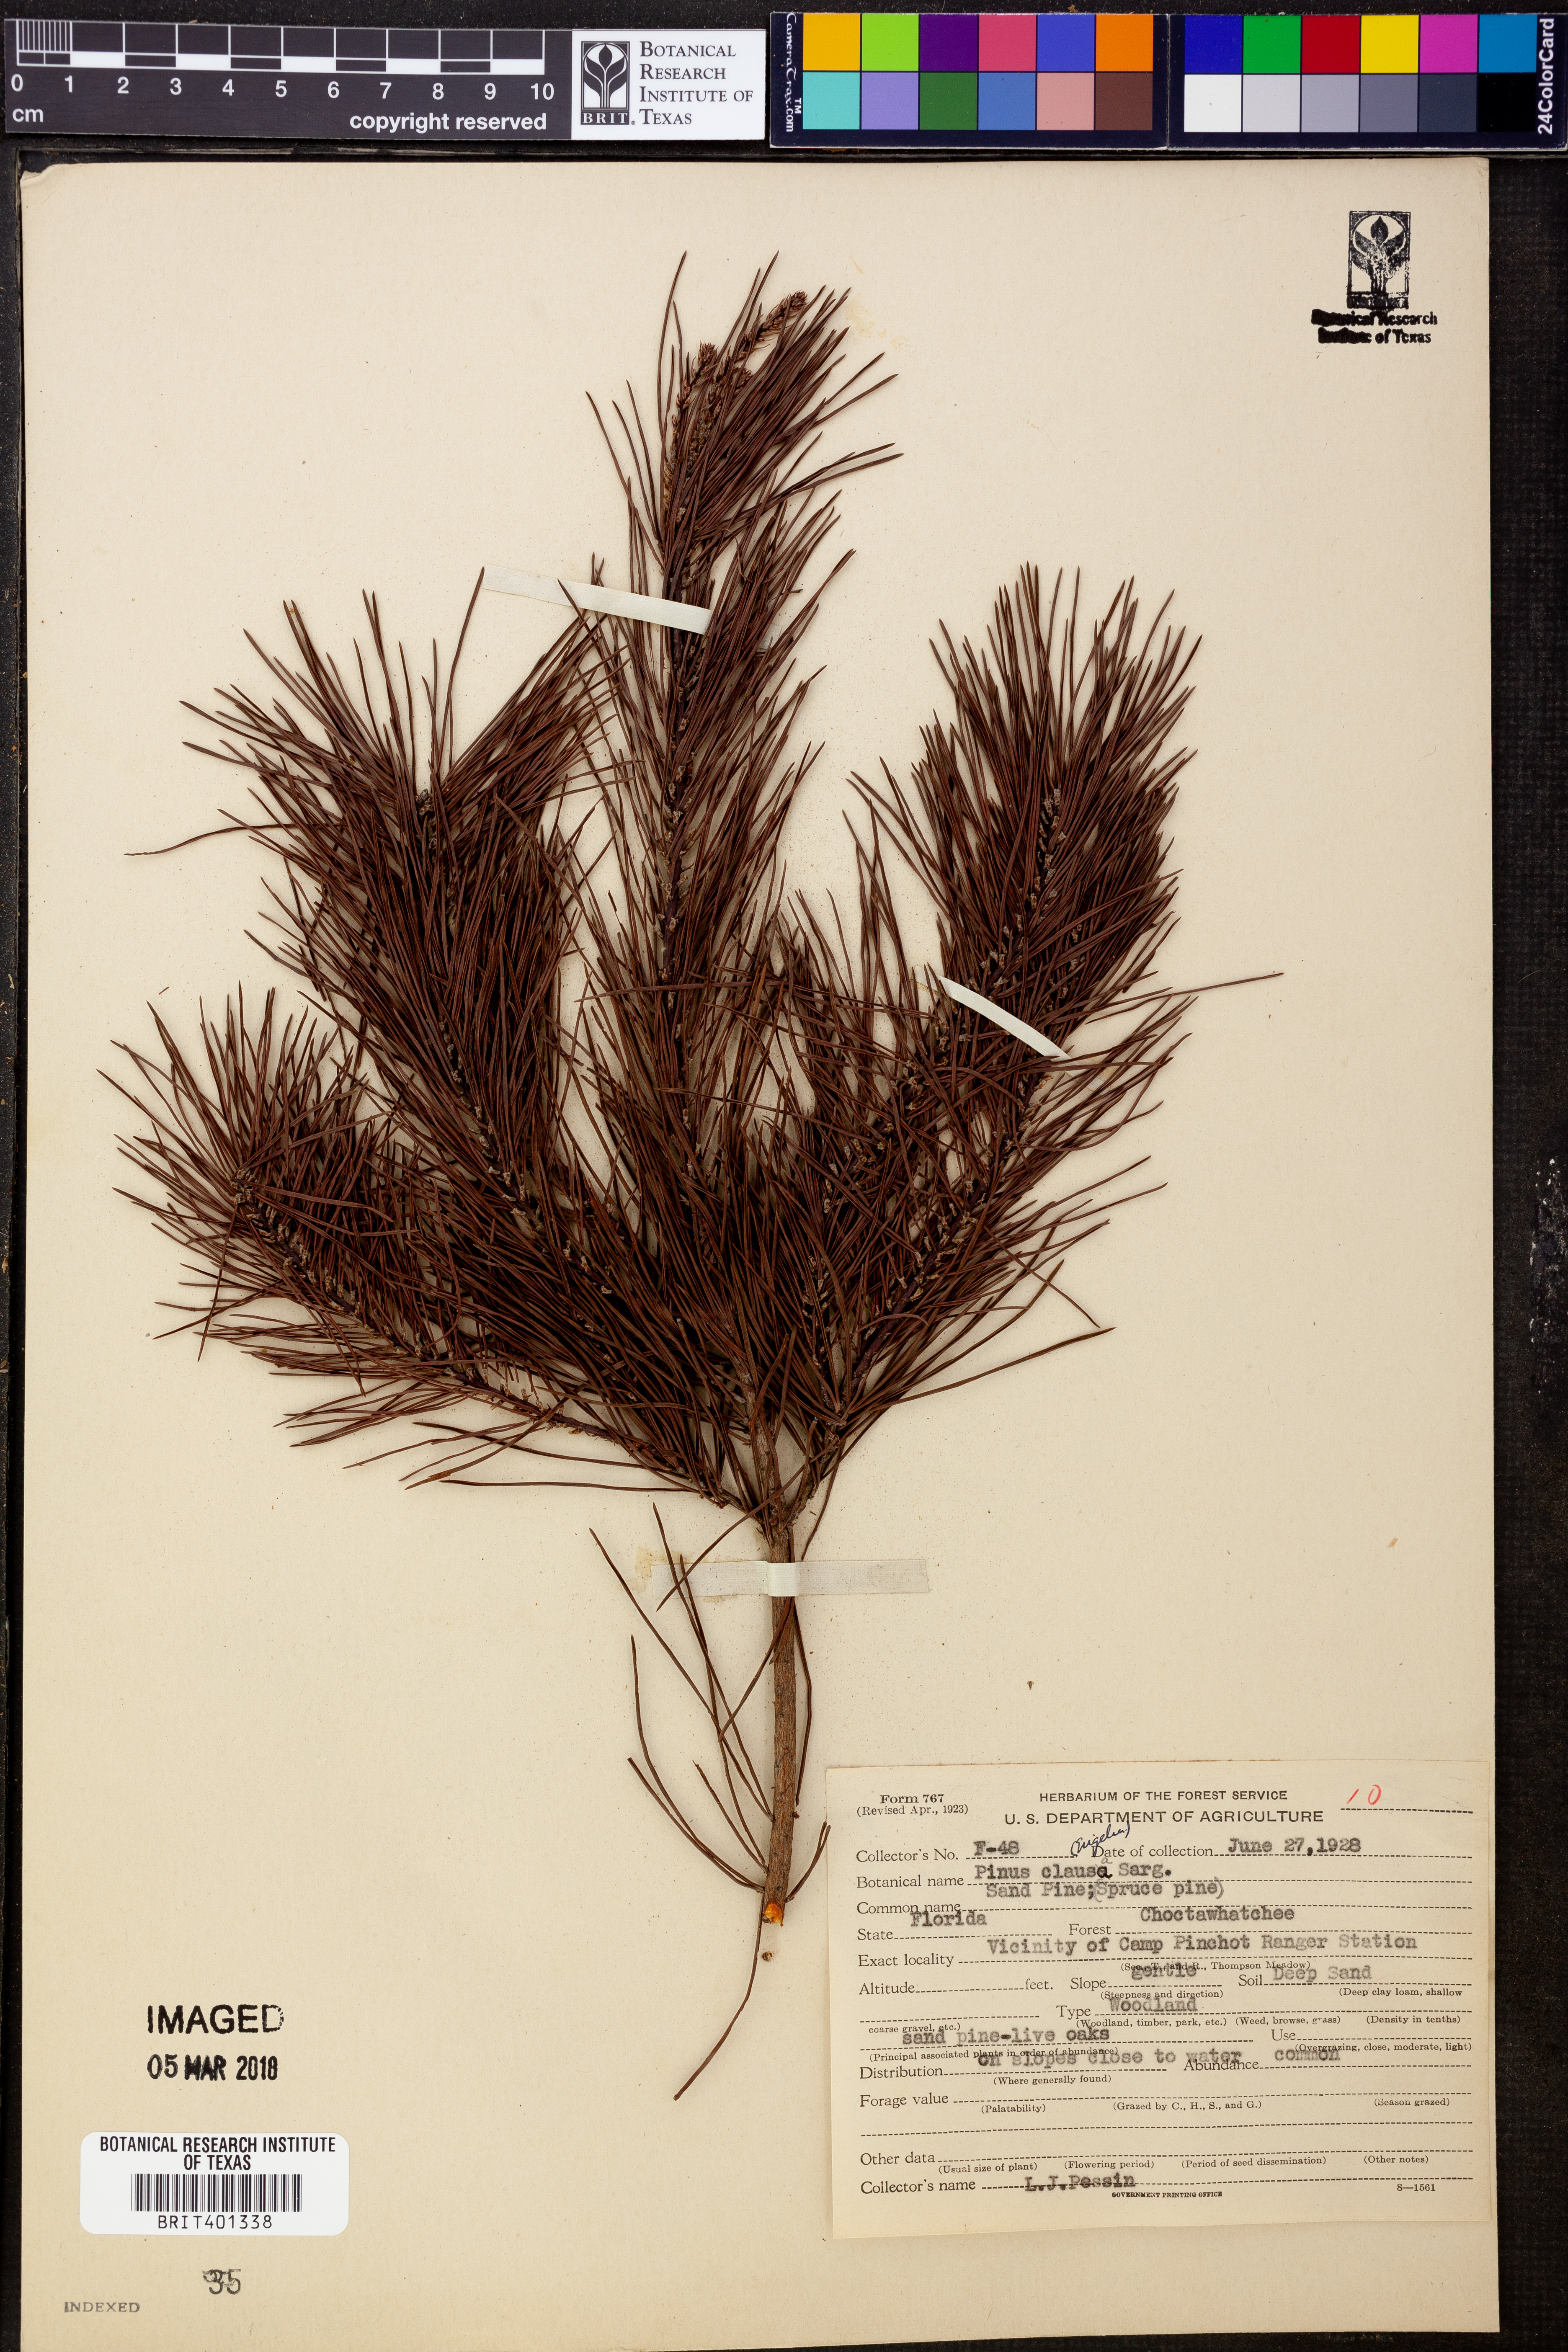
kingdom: Plantae
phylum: Tracheophyta
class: Pinopsida
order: Pinales
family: Pinaceae
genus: Pinus
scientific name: Pinus clausa
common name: Sand pine
